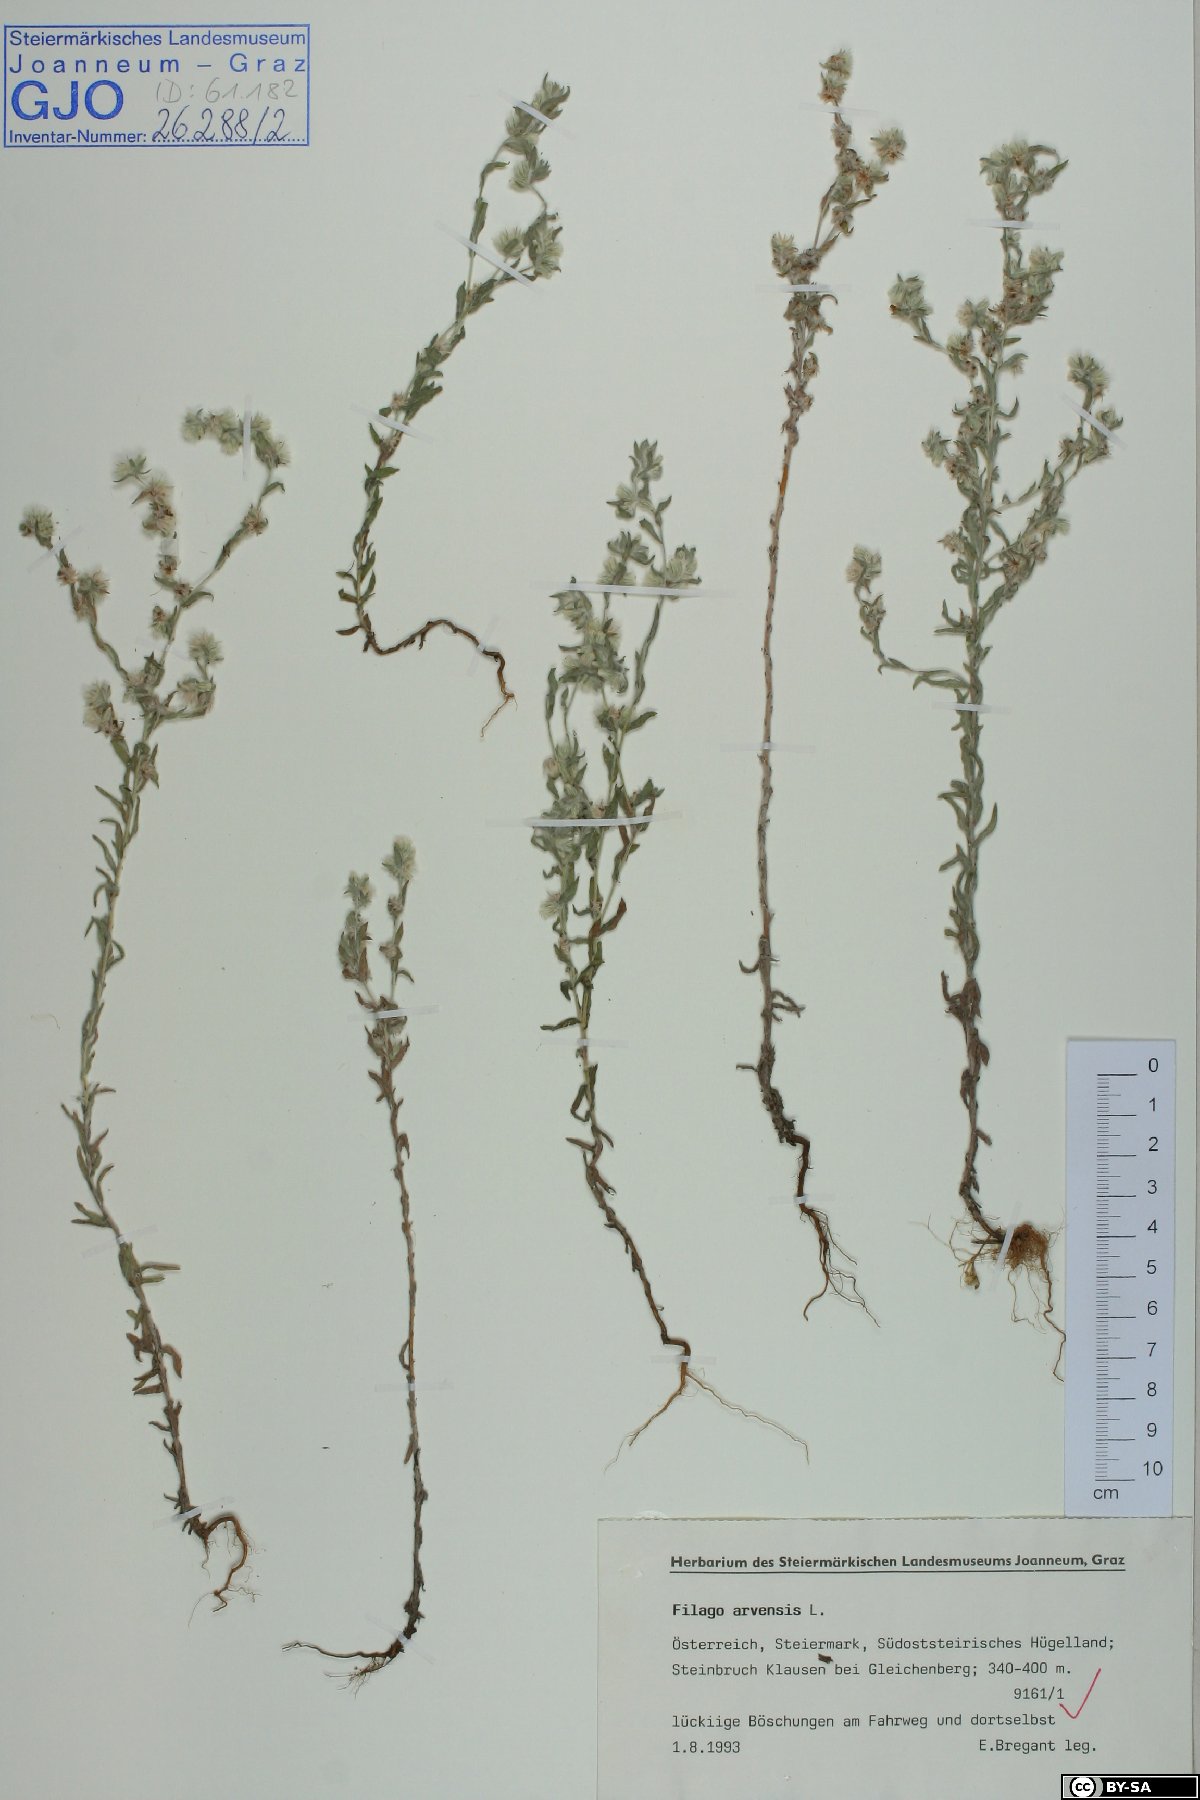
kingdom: Plantae
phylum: Tracheophyta
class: Magnoliopsida
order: Asterales
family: Asteraceae
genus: Filago
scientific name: Filago arvensis
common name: Field cudweed
